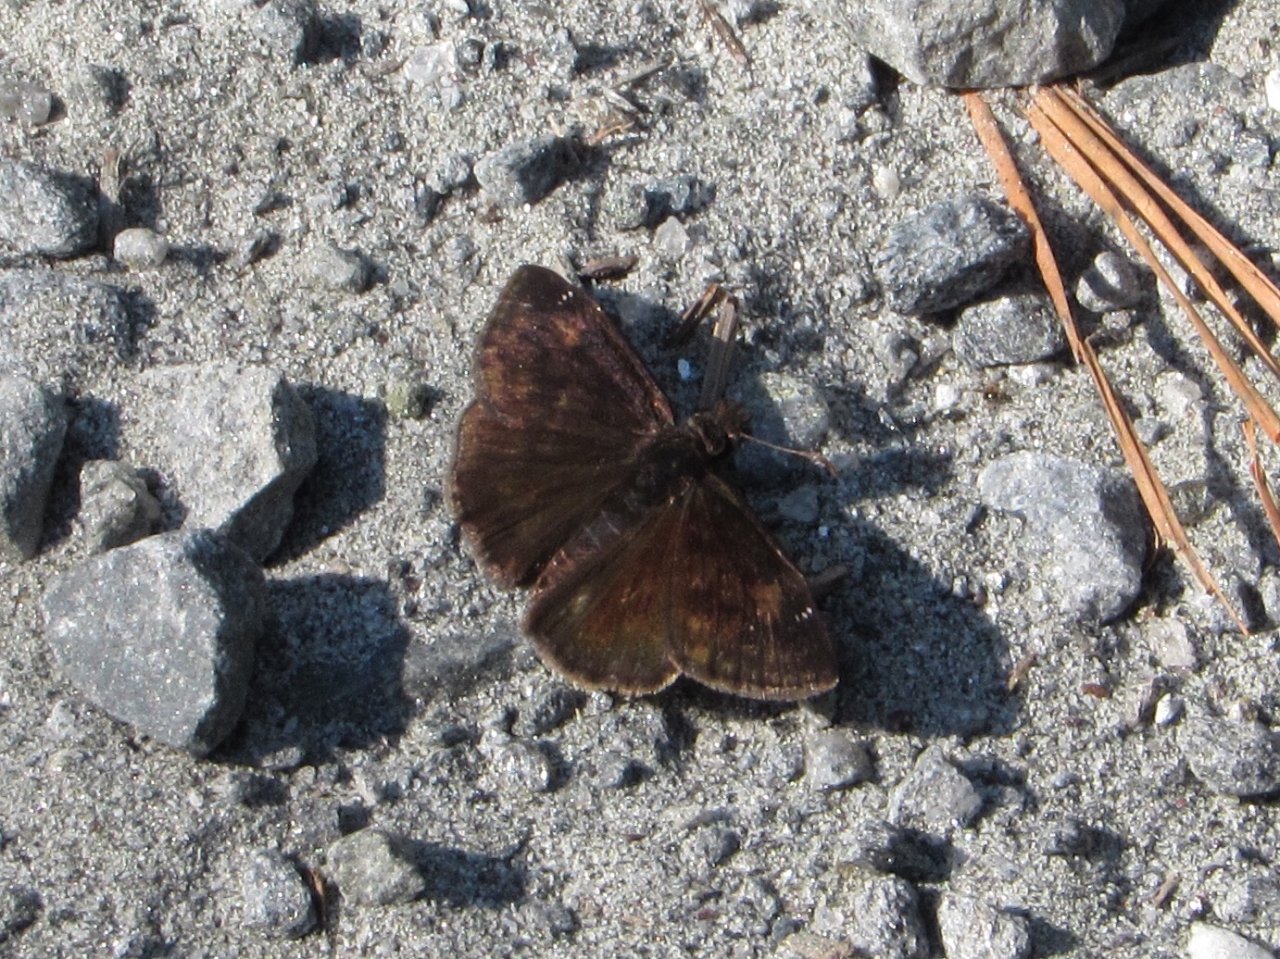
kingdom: Animalia
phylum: Arthropoda
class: Insecta
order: Lepidoptera
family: Hesperiidae
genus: Erynnis
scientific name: Erynnis zarucco
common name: Zarucco Duskywing
